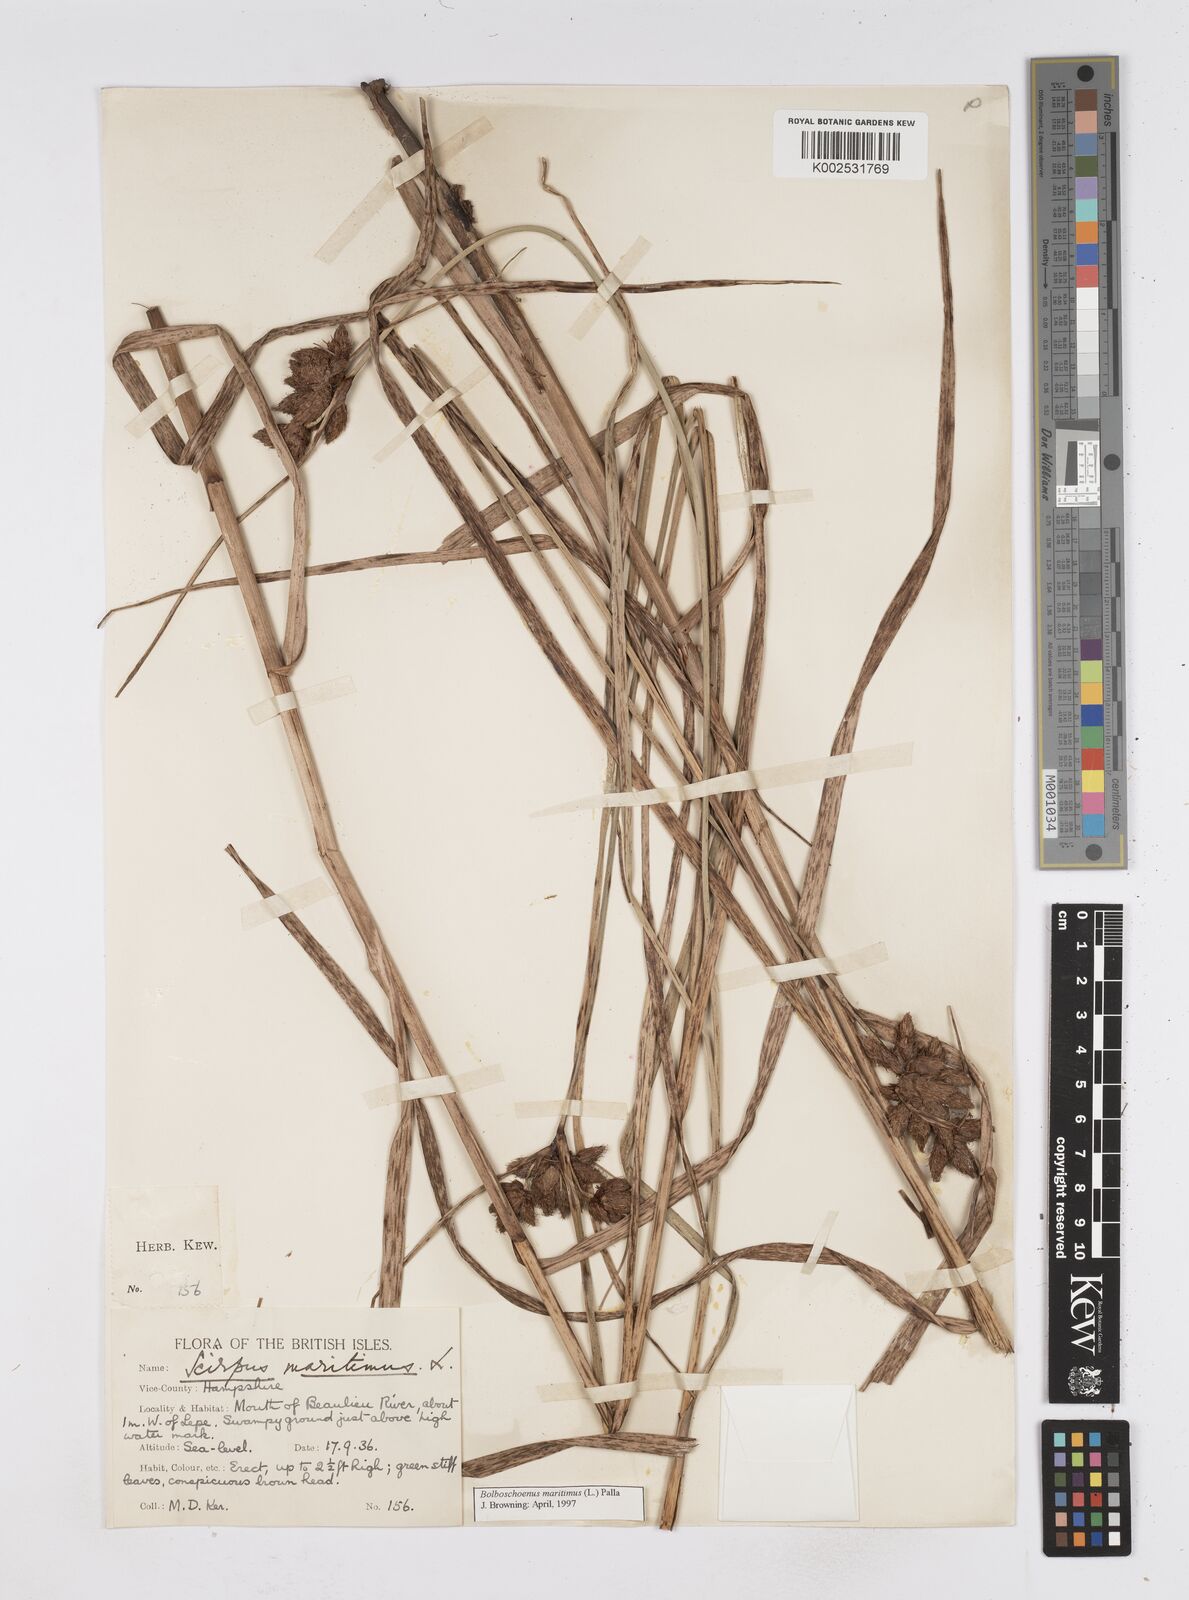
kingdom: Plantae
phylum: Tracheophyta
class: Liliopsida
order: Poales
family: Cyperaceae
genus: Bolboschoenus
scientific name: Bolboschoenus maritimus
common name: Sea club-rush
